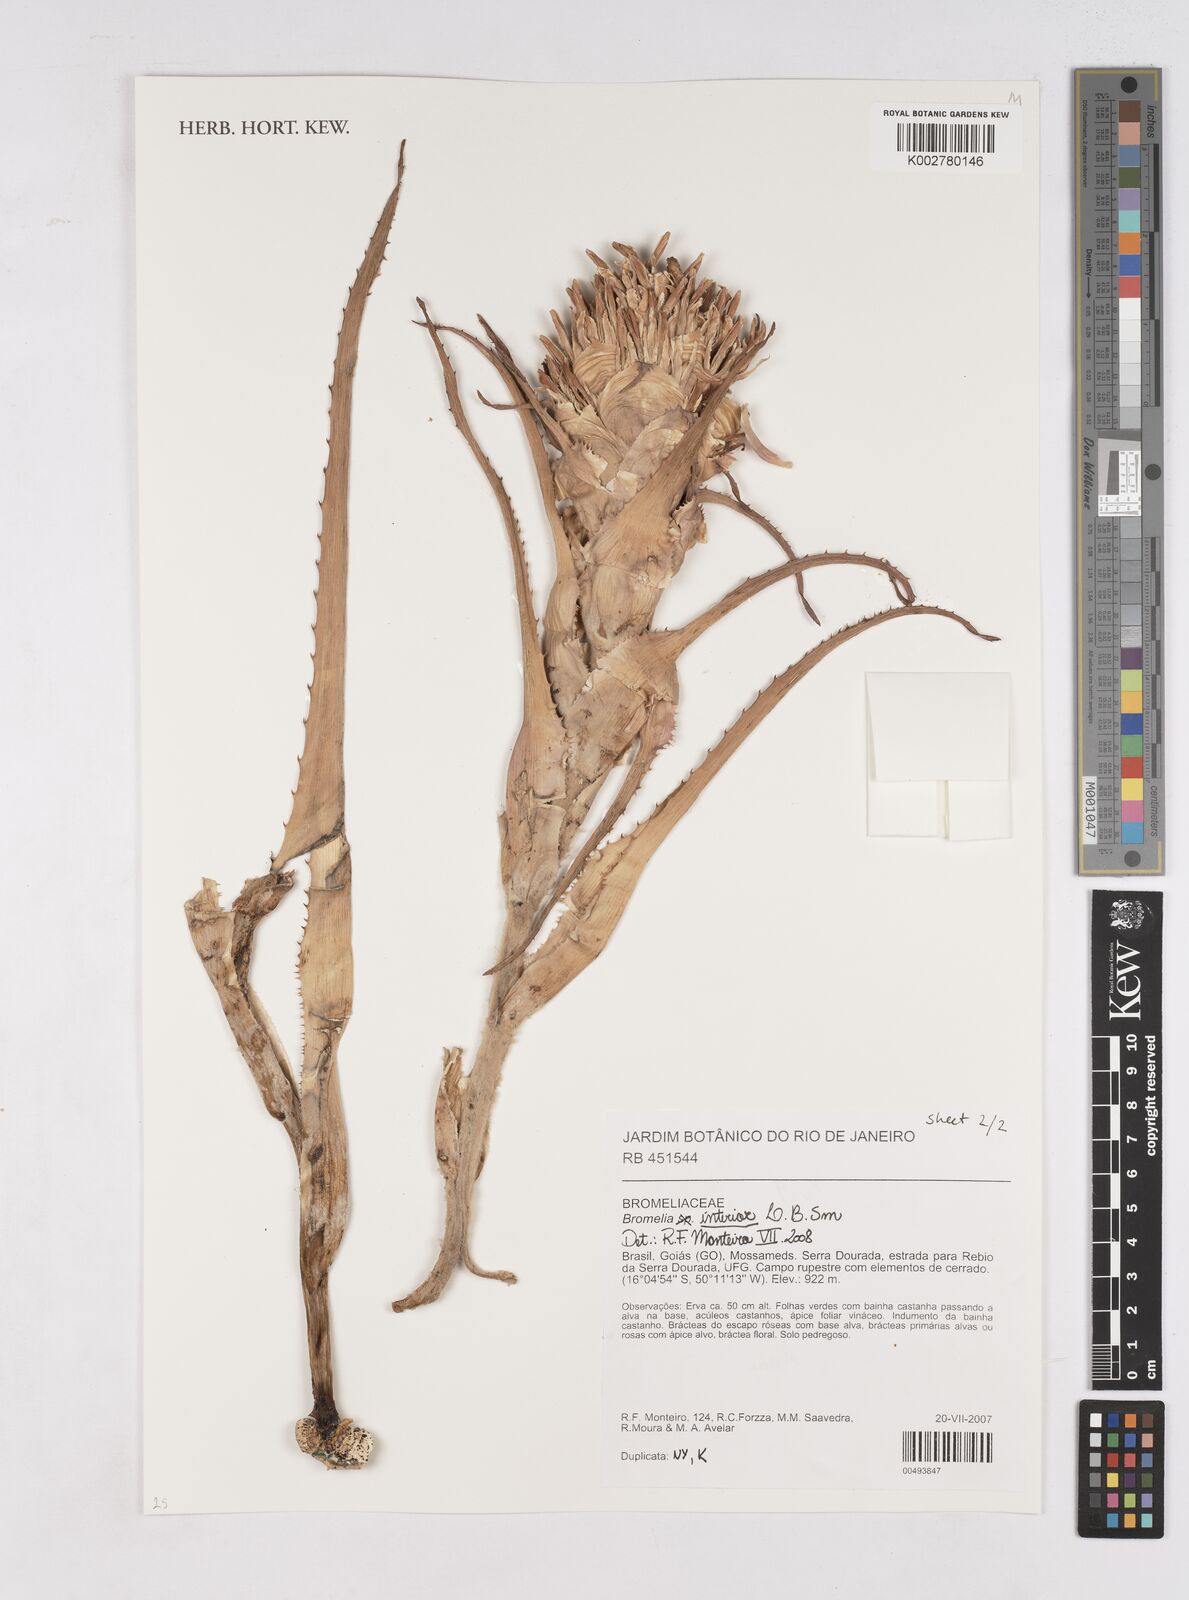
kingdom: Plantae
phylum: Tracheophyta
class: Liliopsida
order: Poales
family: Bromeliaceae
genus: Bromelia
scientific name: Bromelia interior
